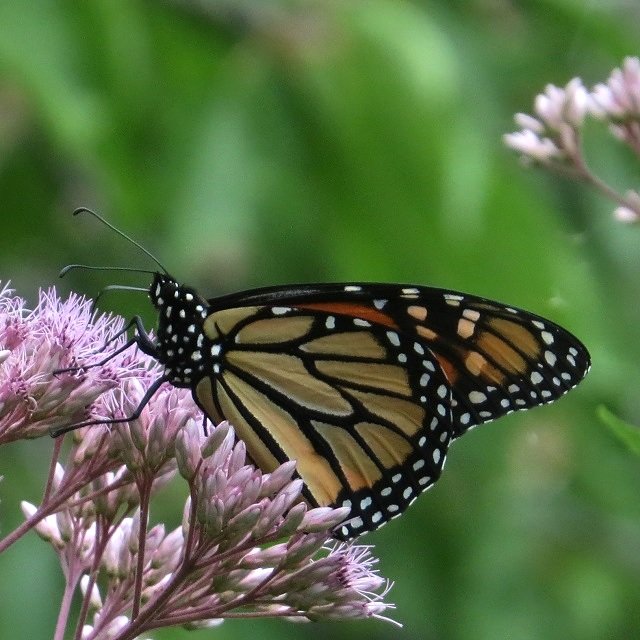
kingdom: Animalia
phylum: Arthropoda
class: Insecta
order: Lepidoptera
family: Nymphalidae
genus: Danaus
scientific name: Danaus plexippus
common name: Monarch
